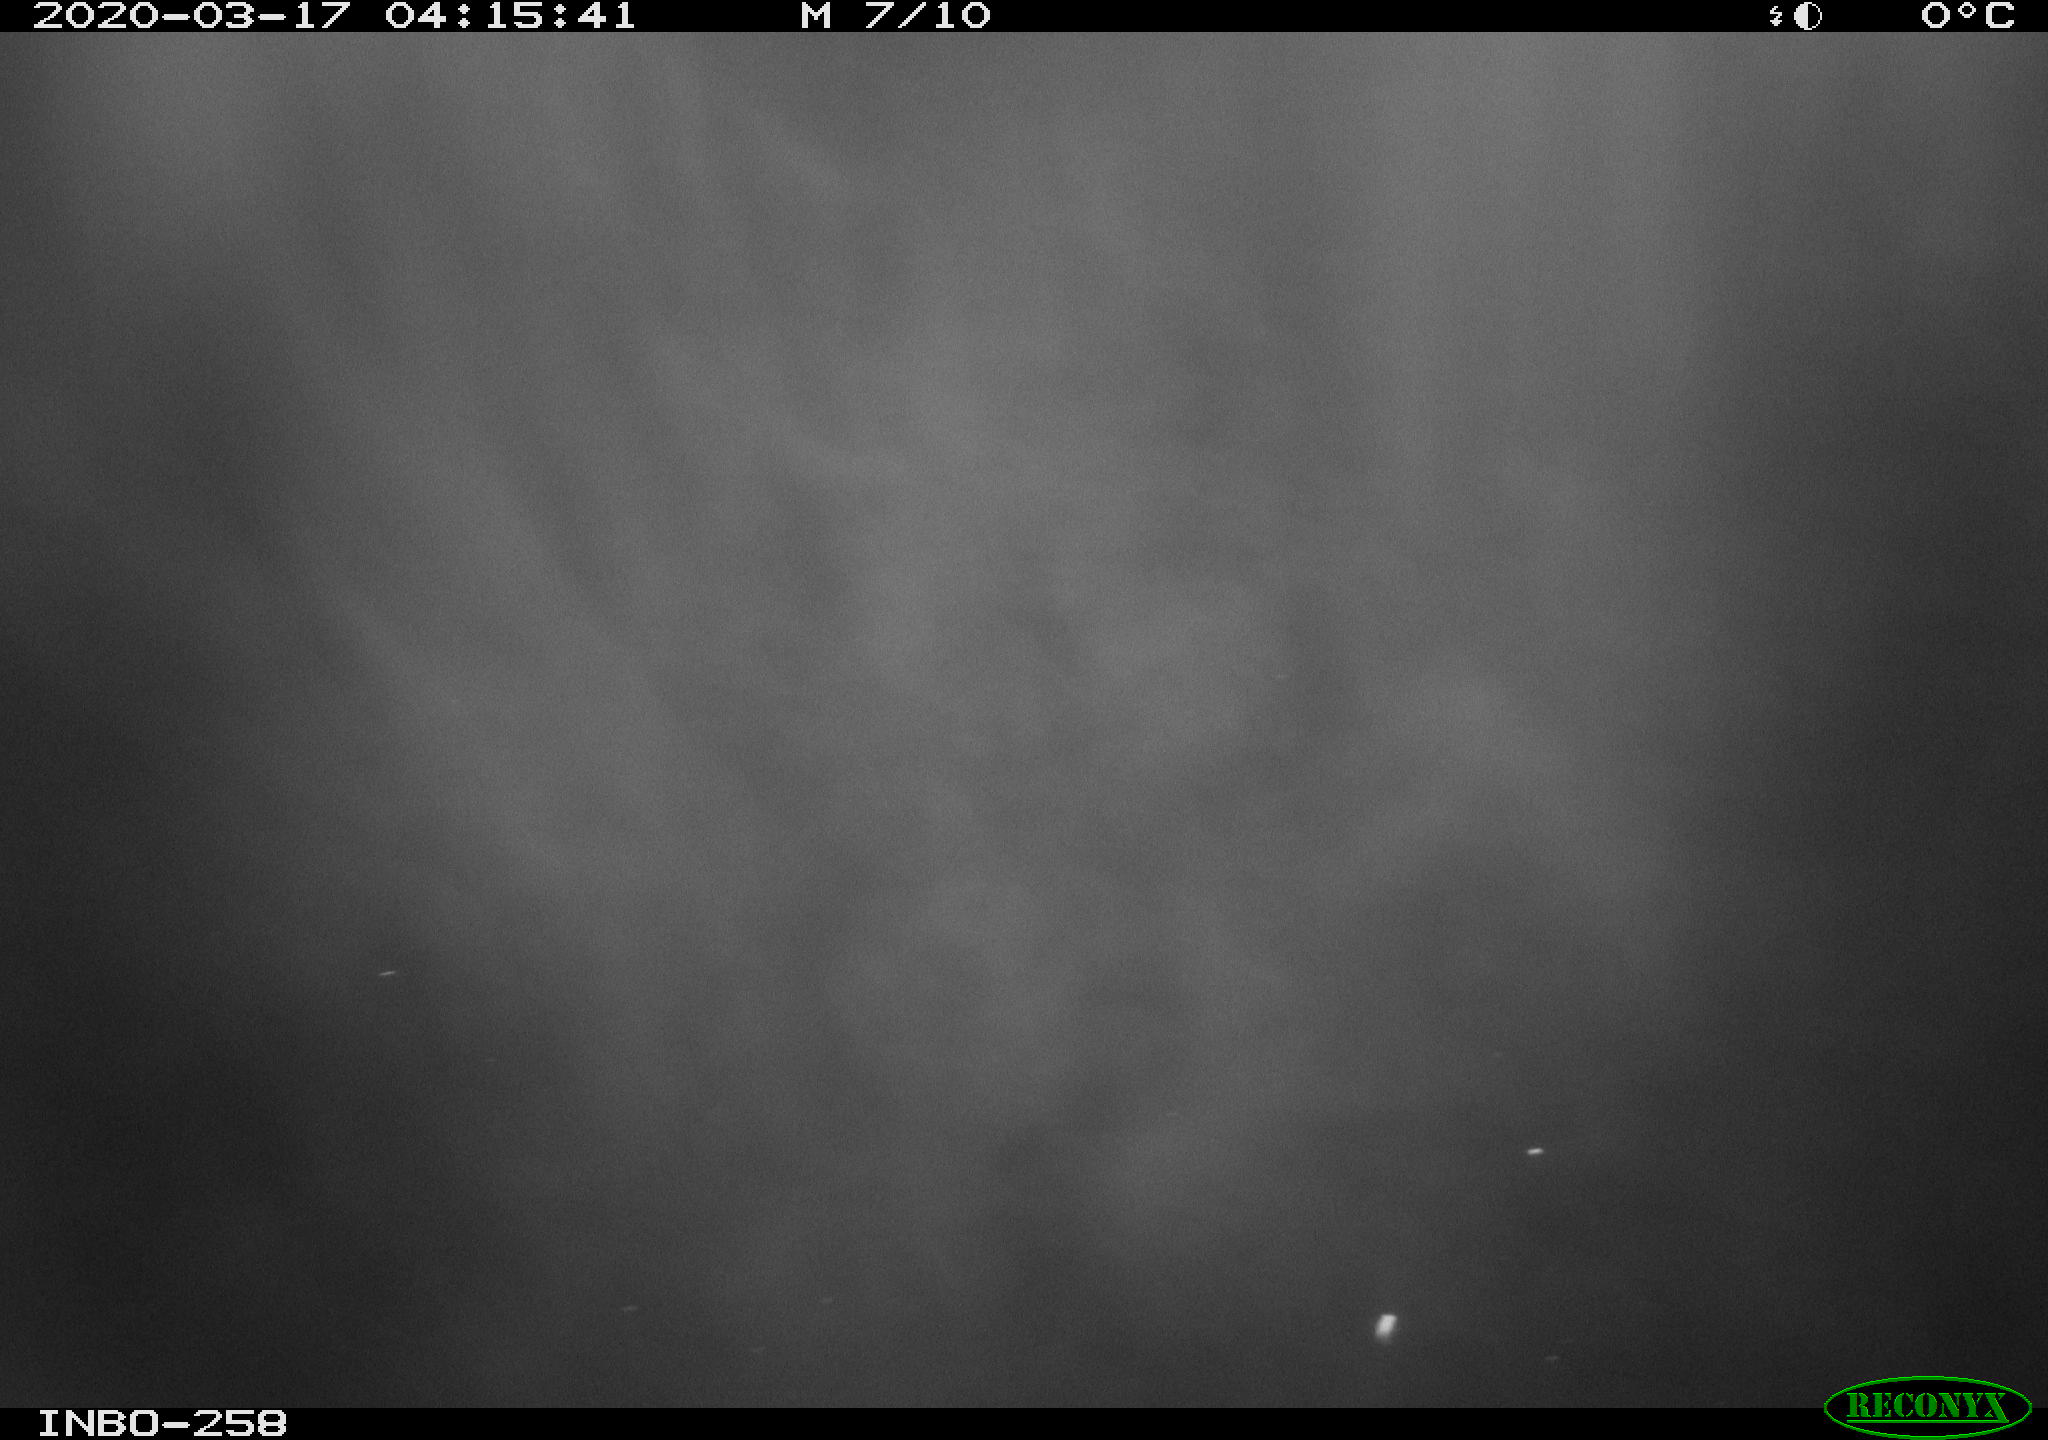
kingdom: Animalia
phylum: Chordata
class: Aves
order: Anseriformes
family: Anatidae
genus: Anas
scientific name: Anas platyrhynchos
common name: Mallard
